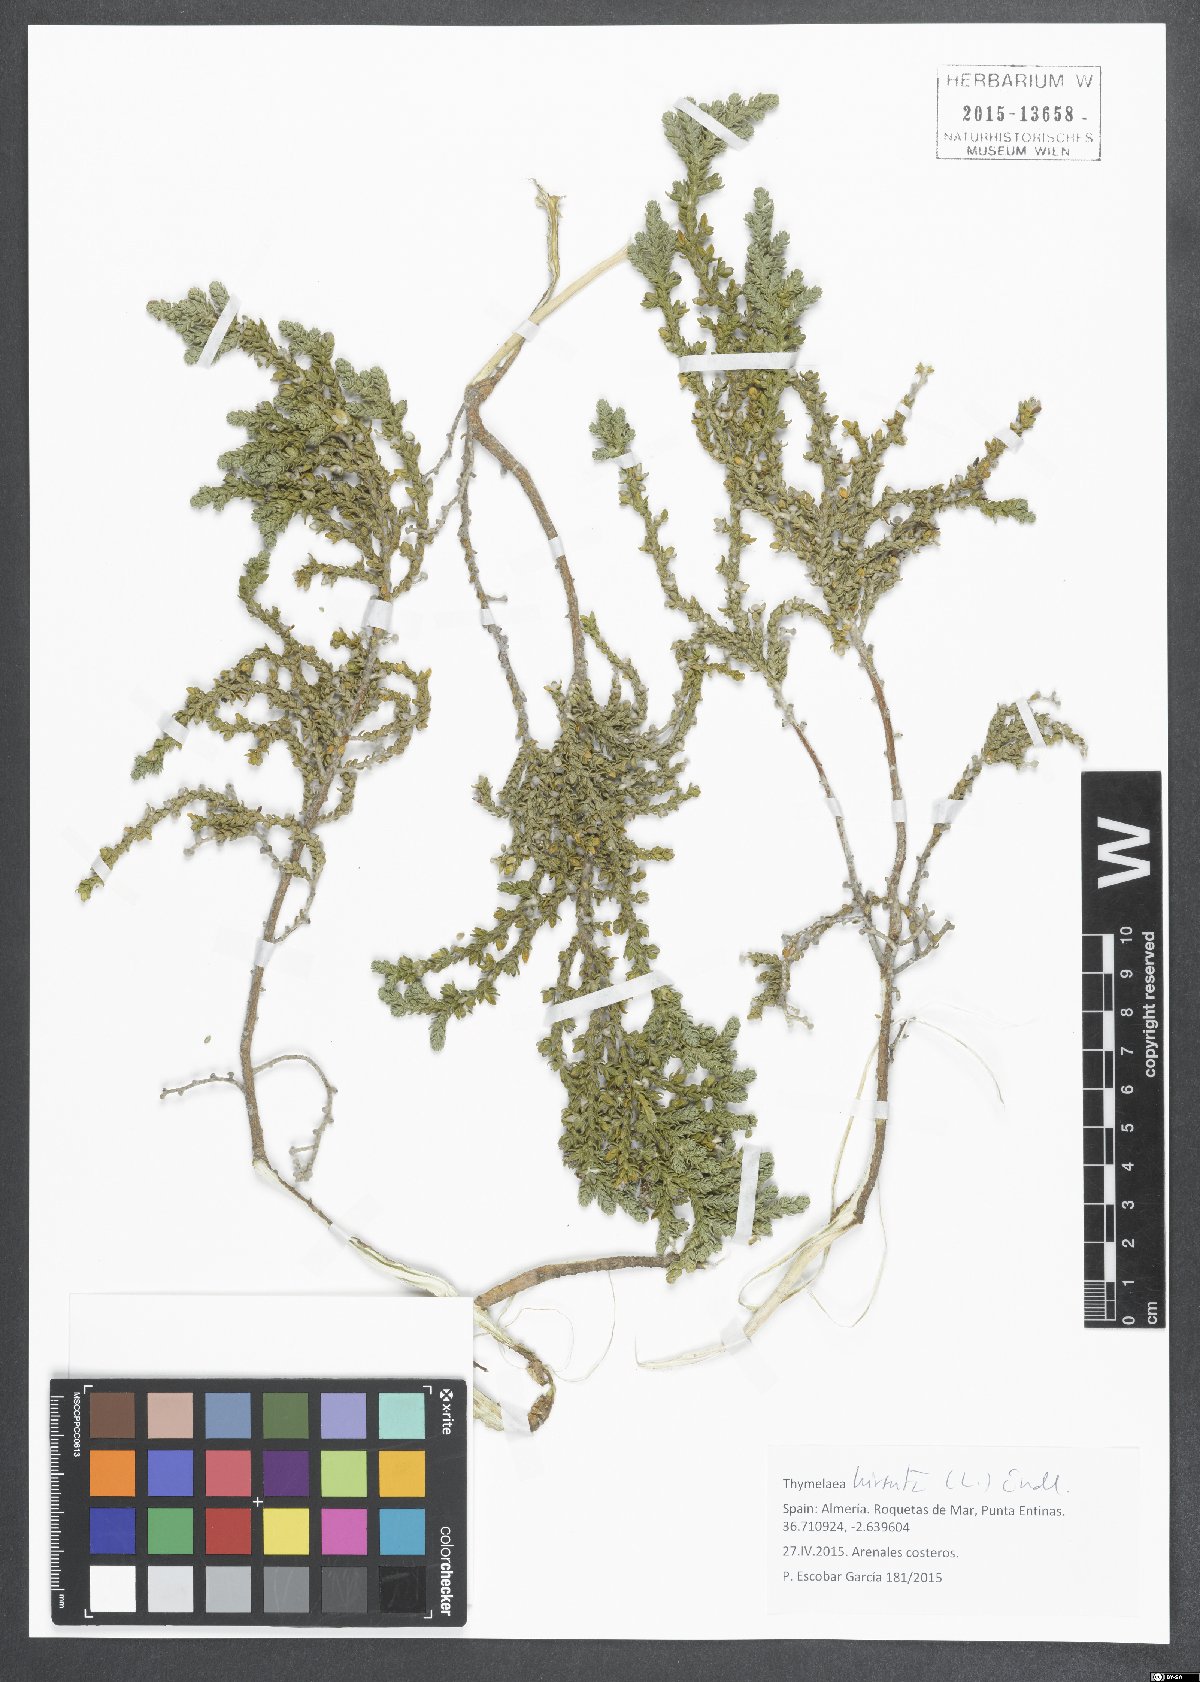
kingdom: Plantae
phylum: Tracheophyta
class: Magnoliopsida
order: Malvales
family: Thymelaeaceae
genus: Thymelaea
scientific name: Thymelaea hirsuta
